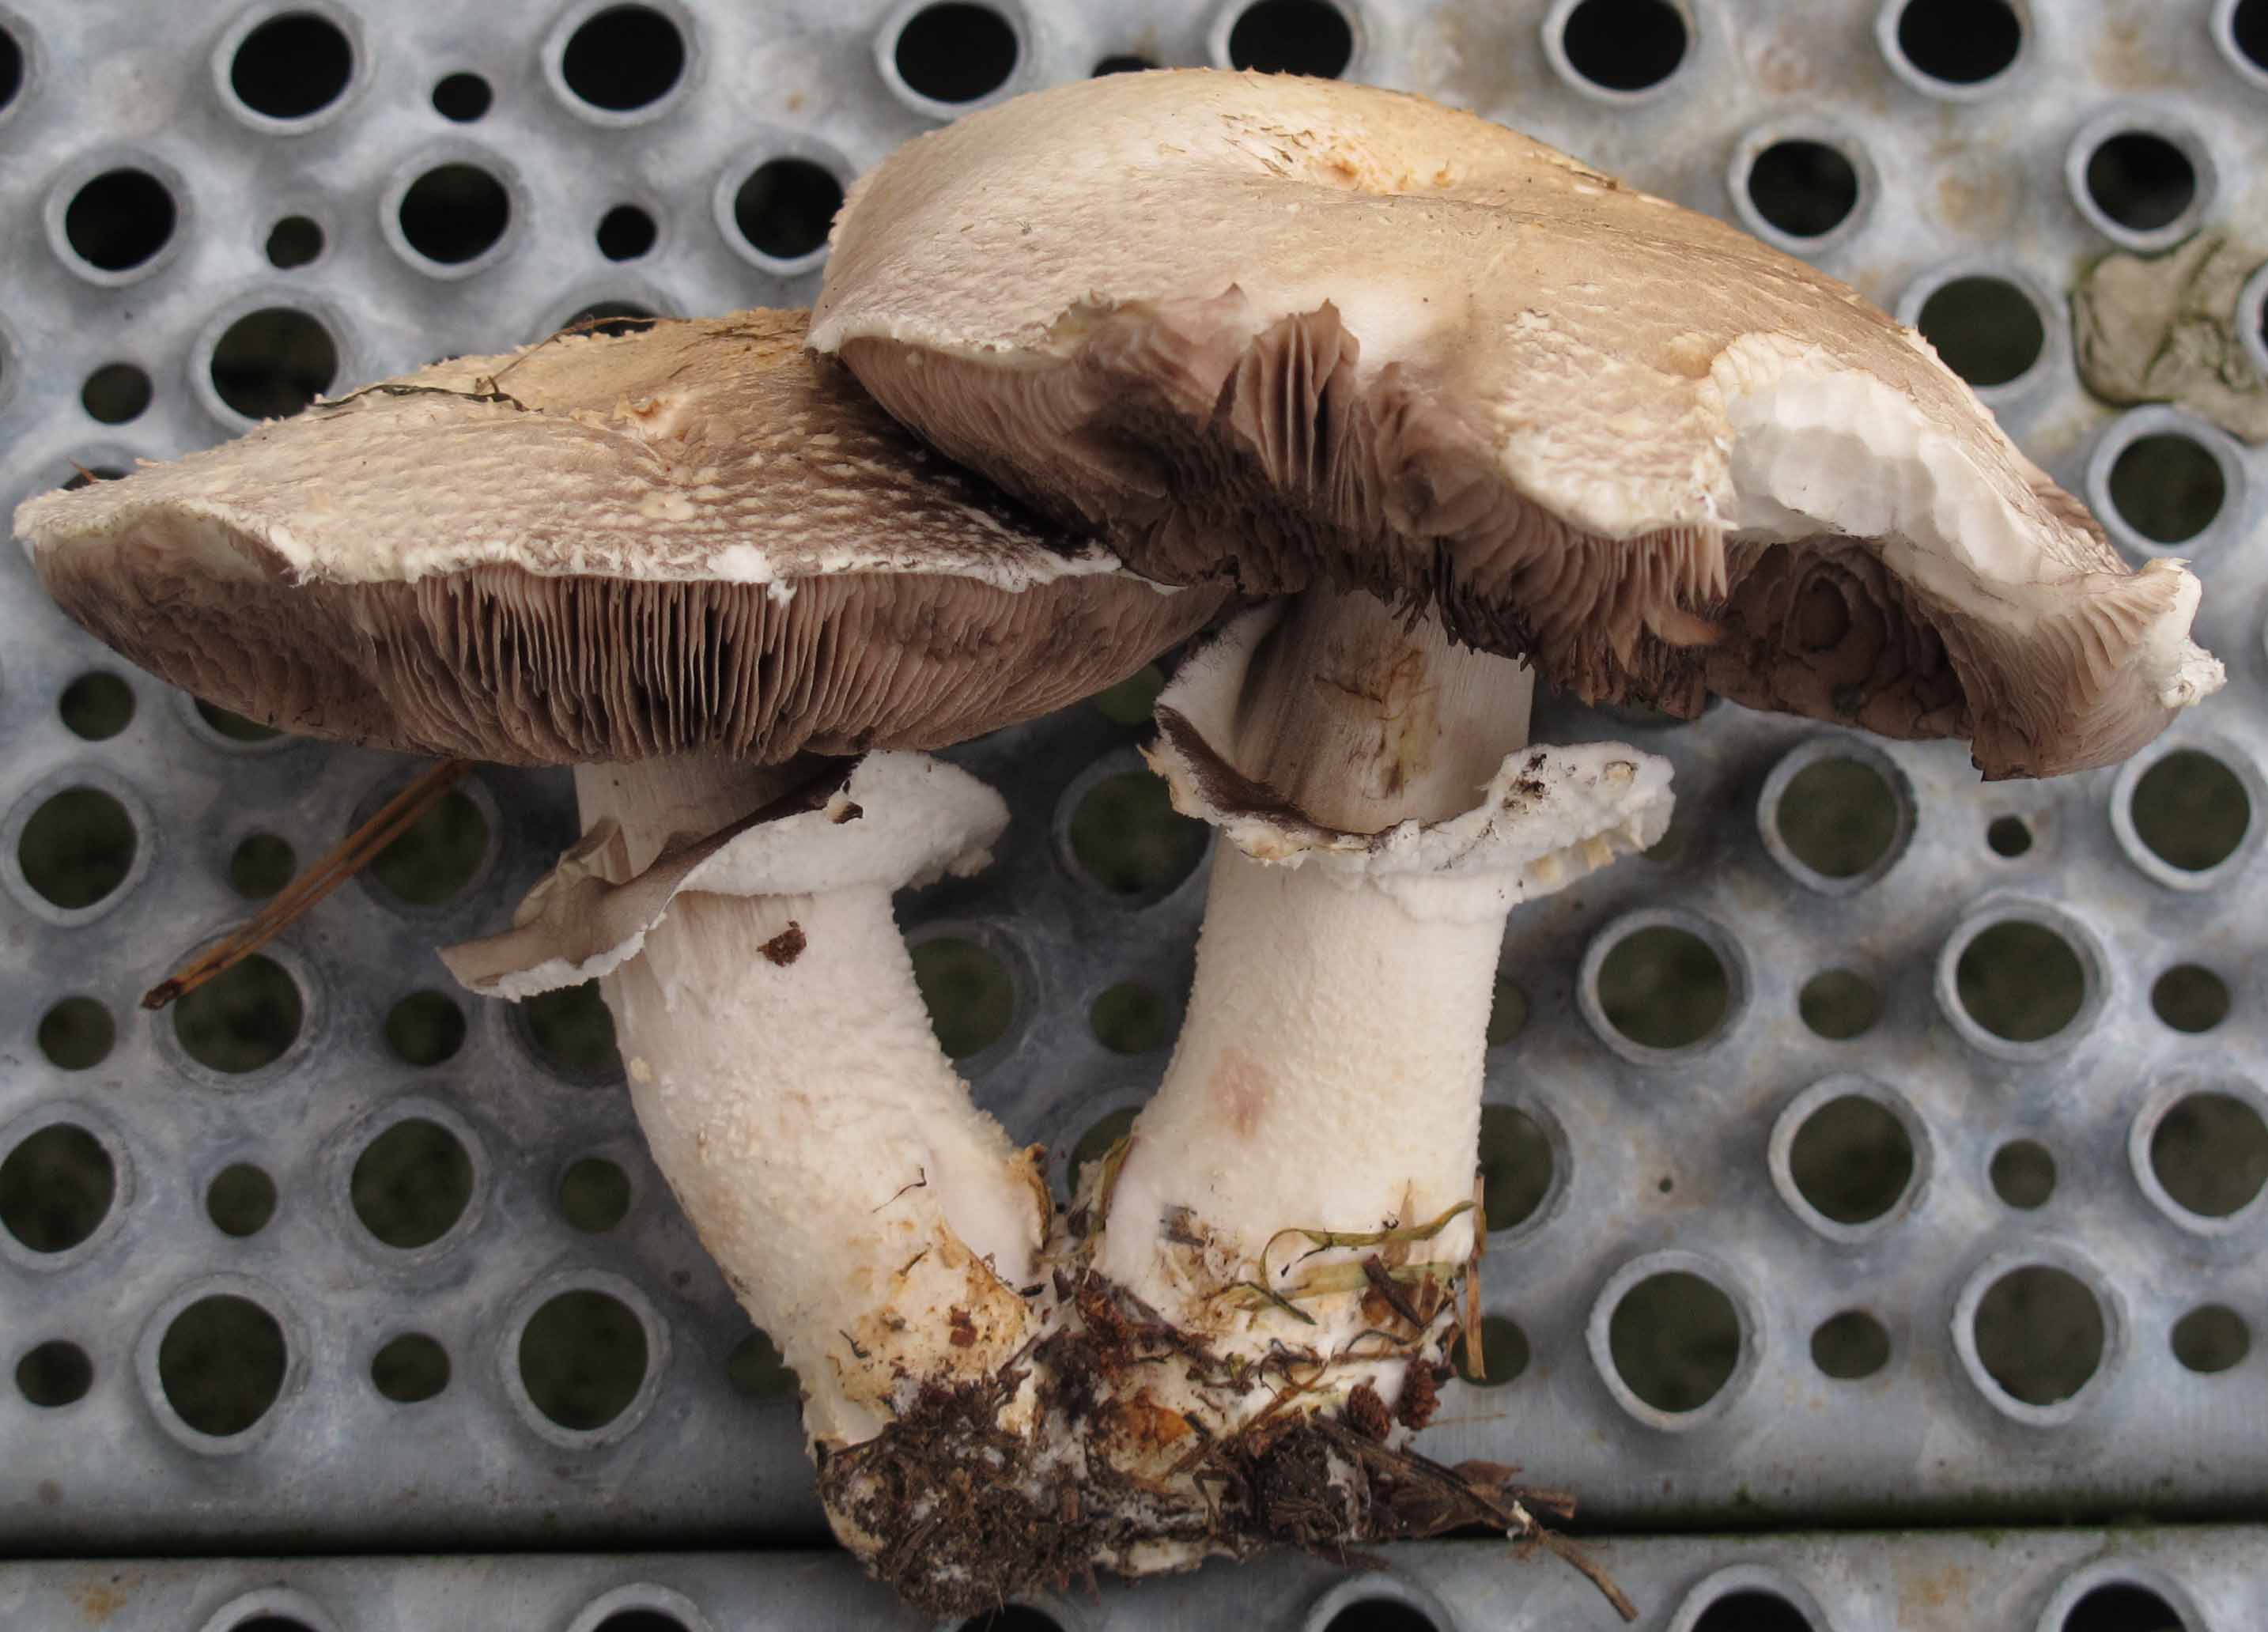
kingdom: Fungi
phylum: Basidiomycota
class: Agaricomycetes
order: Agaricales
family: Agaricaceae
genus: Agaricus
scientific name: Agaricus depauperatus
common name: finskællet champignon
